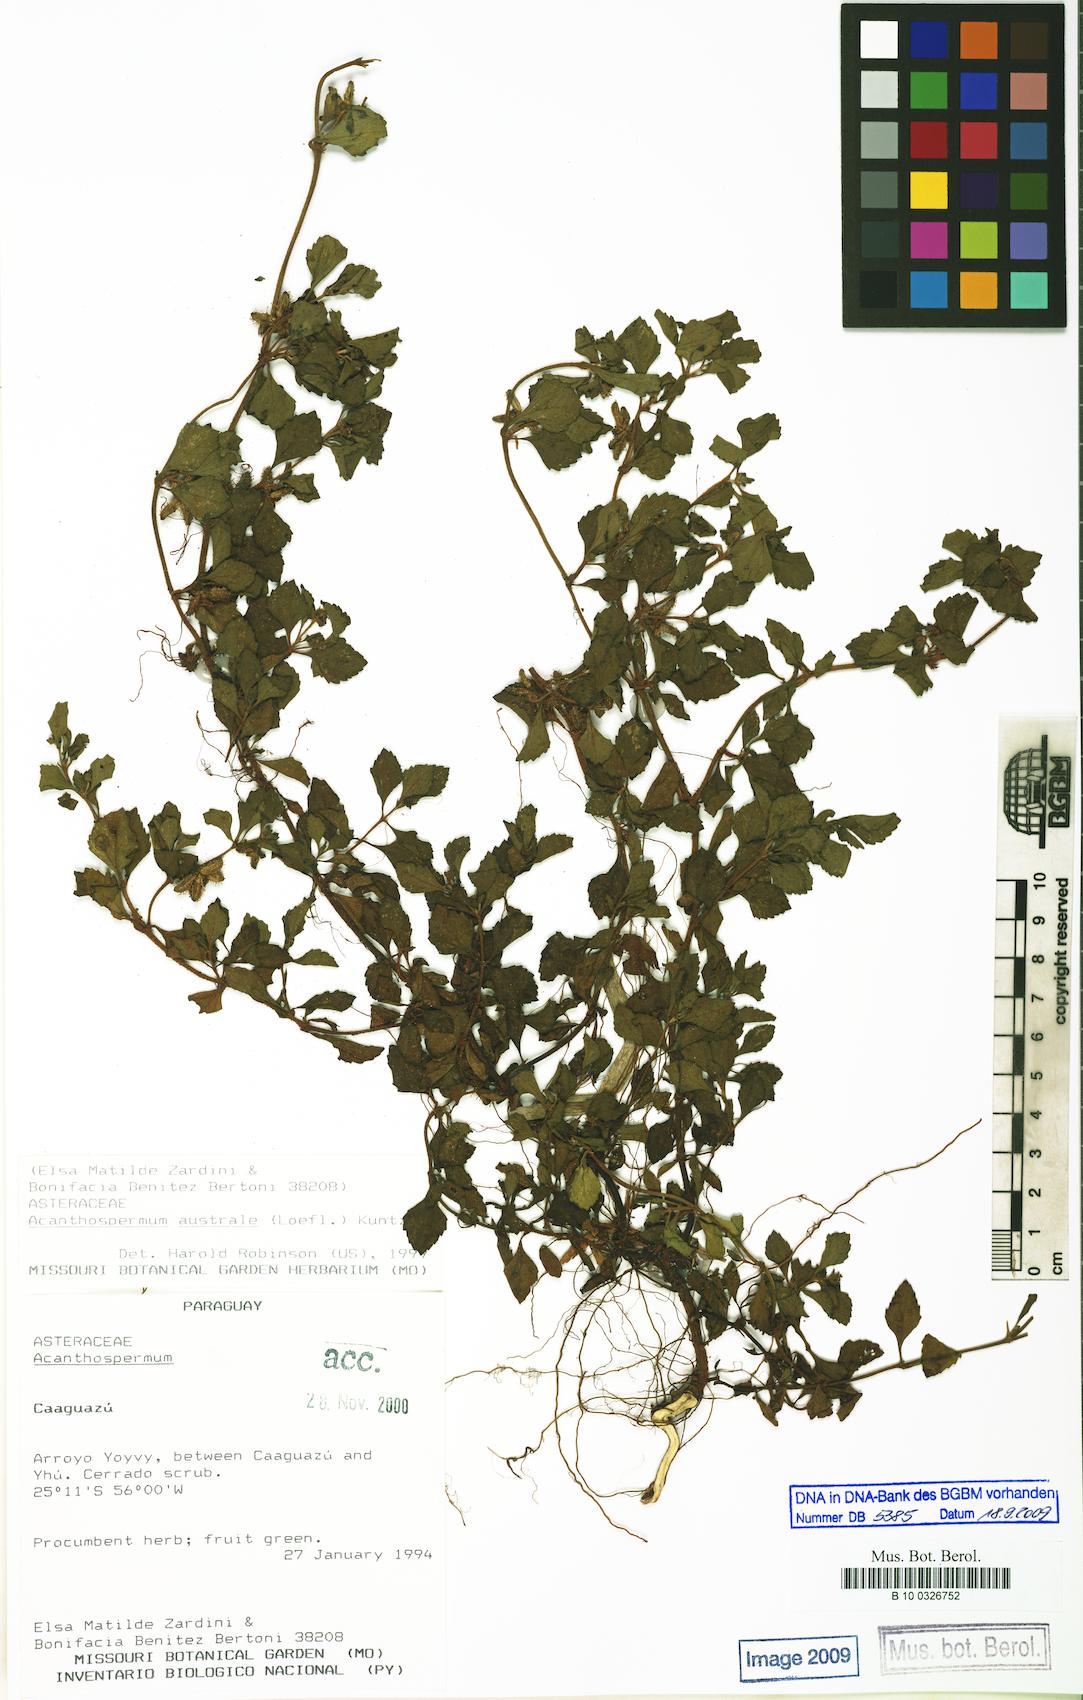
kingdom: Plantae
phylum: Tracheophyta
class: Magnoliopsida
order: Asterales
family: Asteraceae
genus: Acanthospermum
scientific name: Acanthospermum australe
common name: Paraguayan starbur
